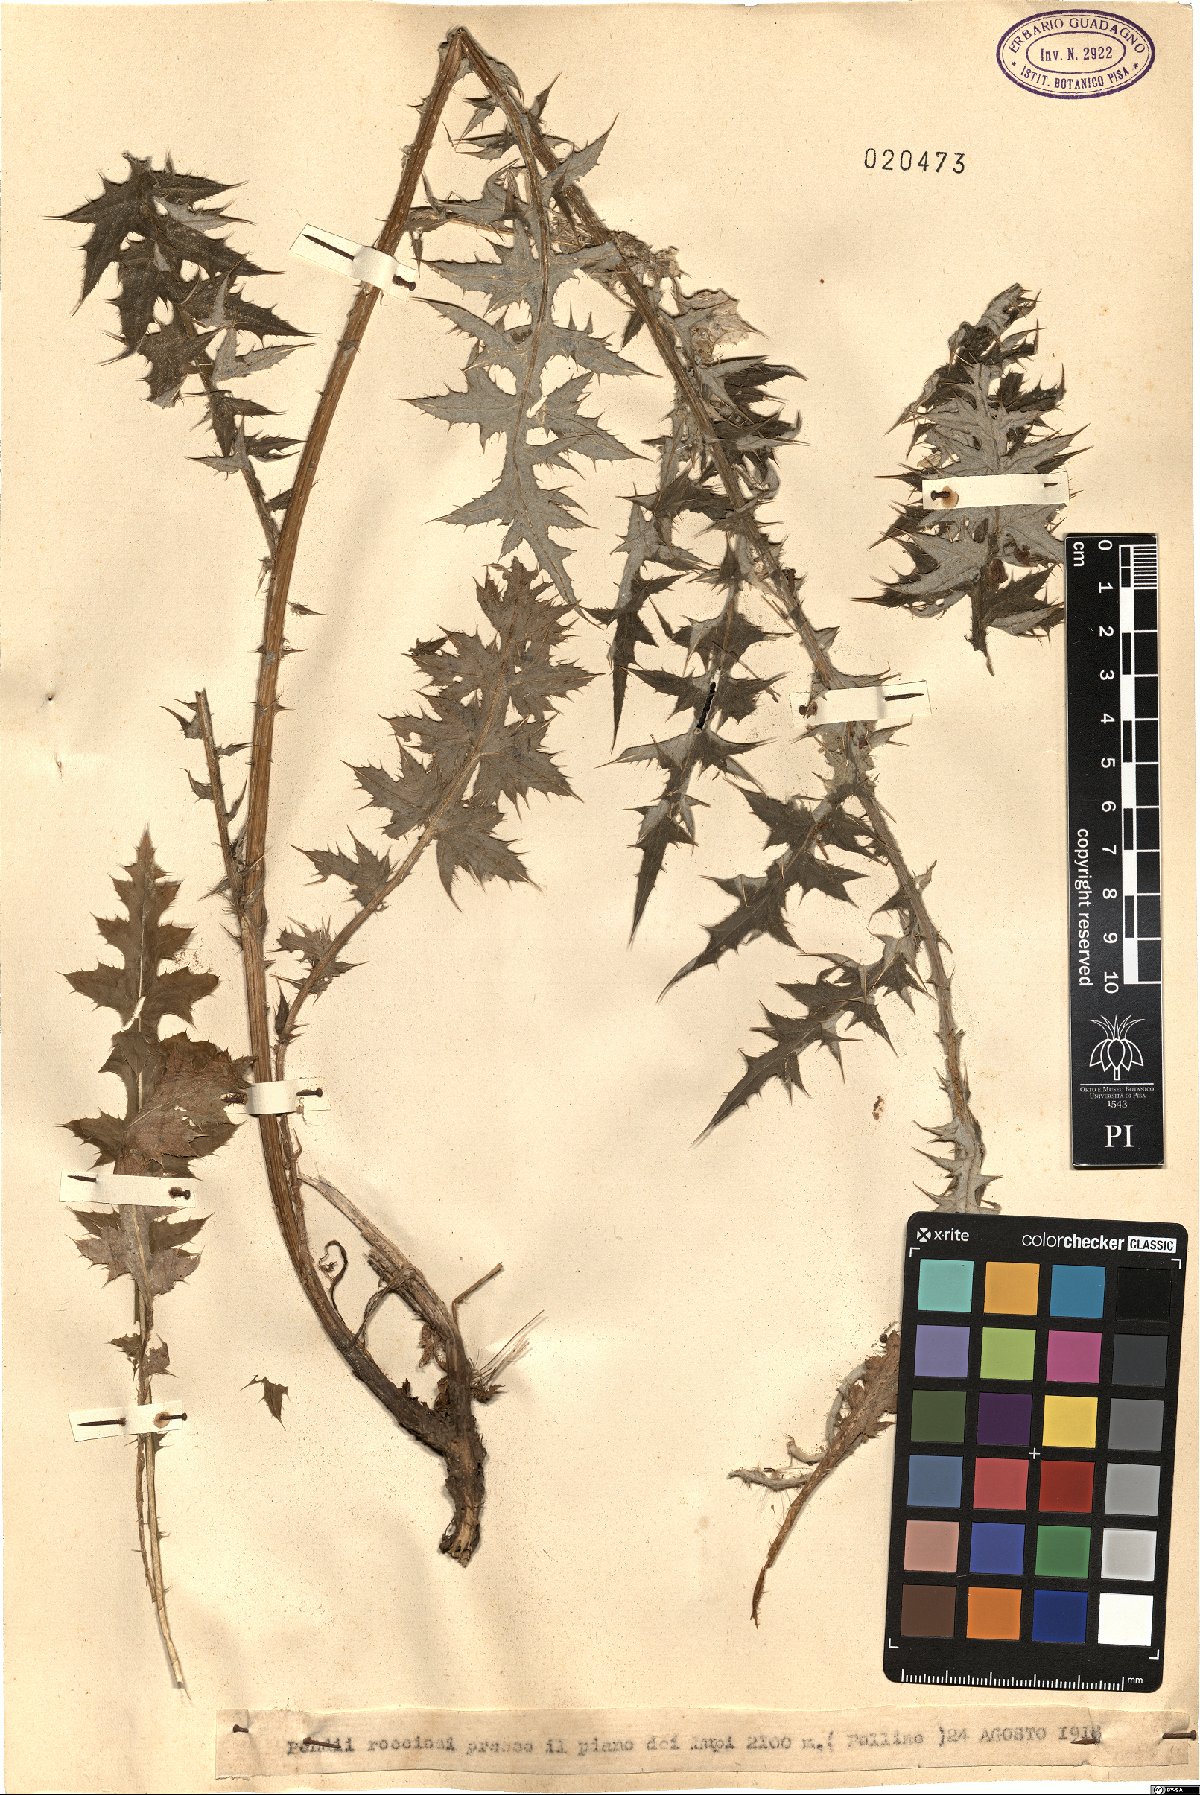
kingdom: Plantae
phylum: Tracheophyta
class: Magnoliopsida
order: Asterales
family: Asteraceae
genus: Carduus
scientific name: Carduus
